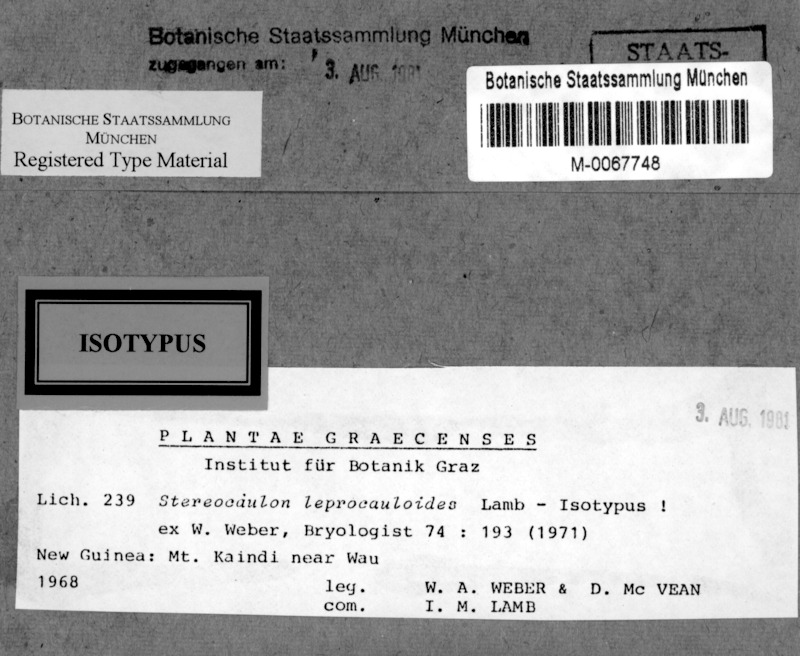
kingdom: Fungi
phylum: Ascomycota
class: Lecanoromycetes
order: Lecanorales
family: Stereocaulaceae
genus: Stereocaulon
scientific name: Stereocaulon leprocauloides
